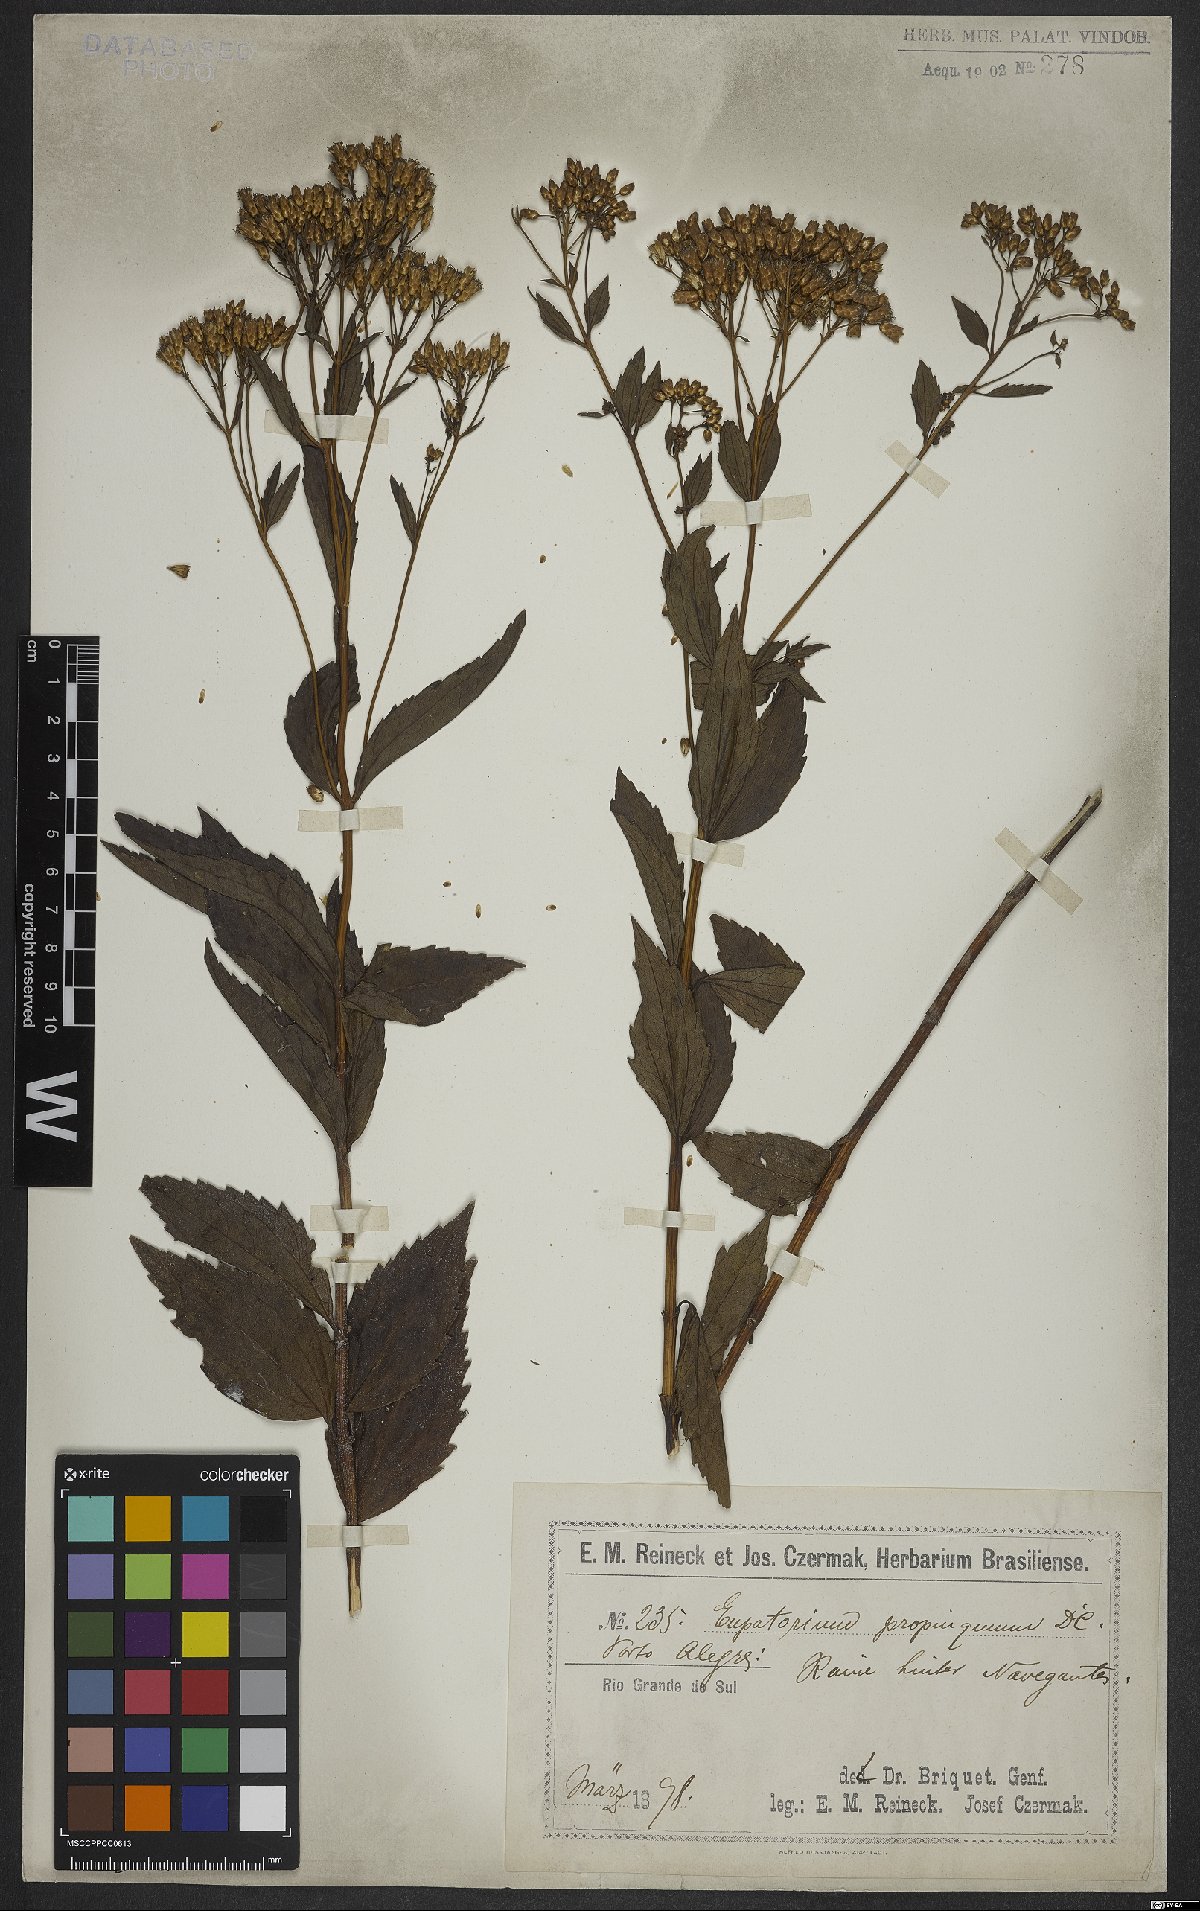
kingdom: Plantae
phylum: Tracheophyta
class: Magnoliopsida
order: Asterales
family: Asteraceae
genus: Chromolaena
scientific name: Chromolaena laevigata
